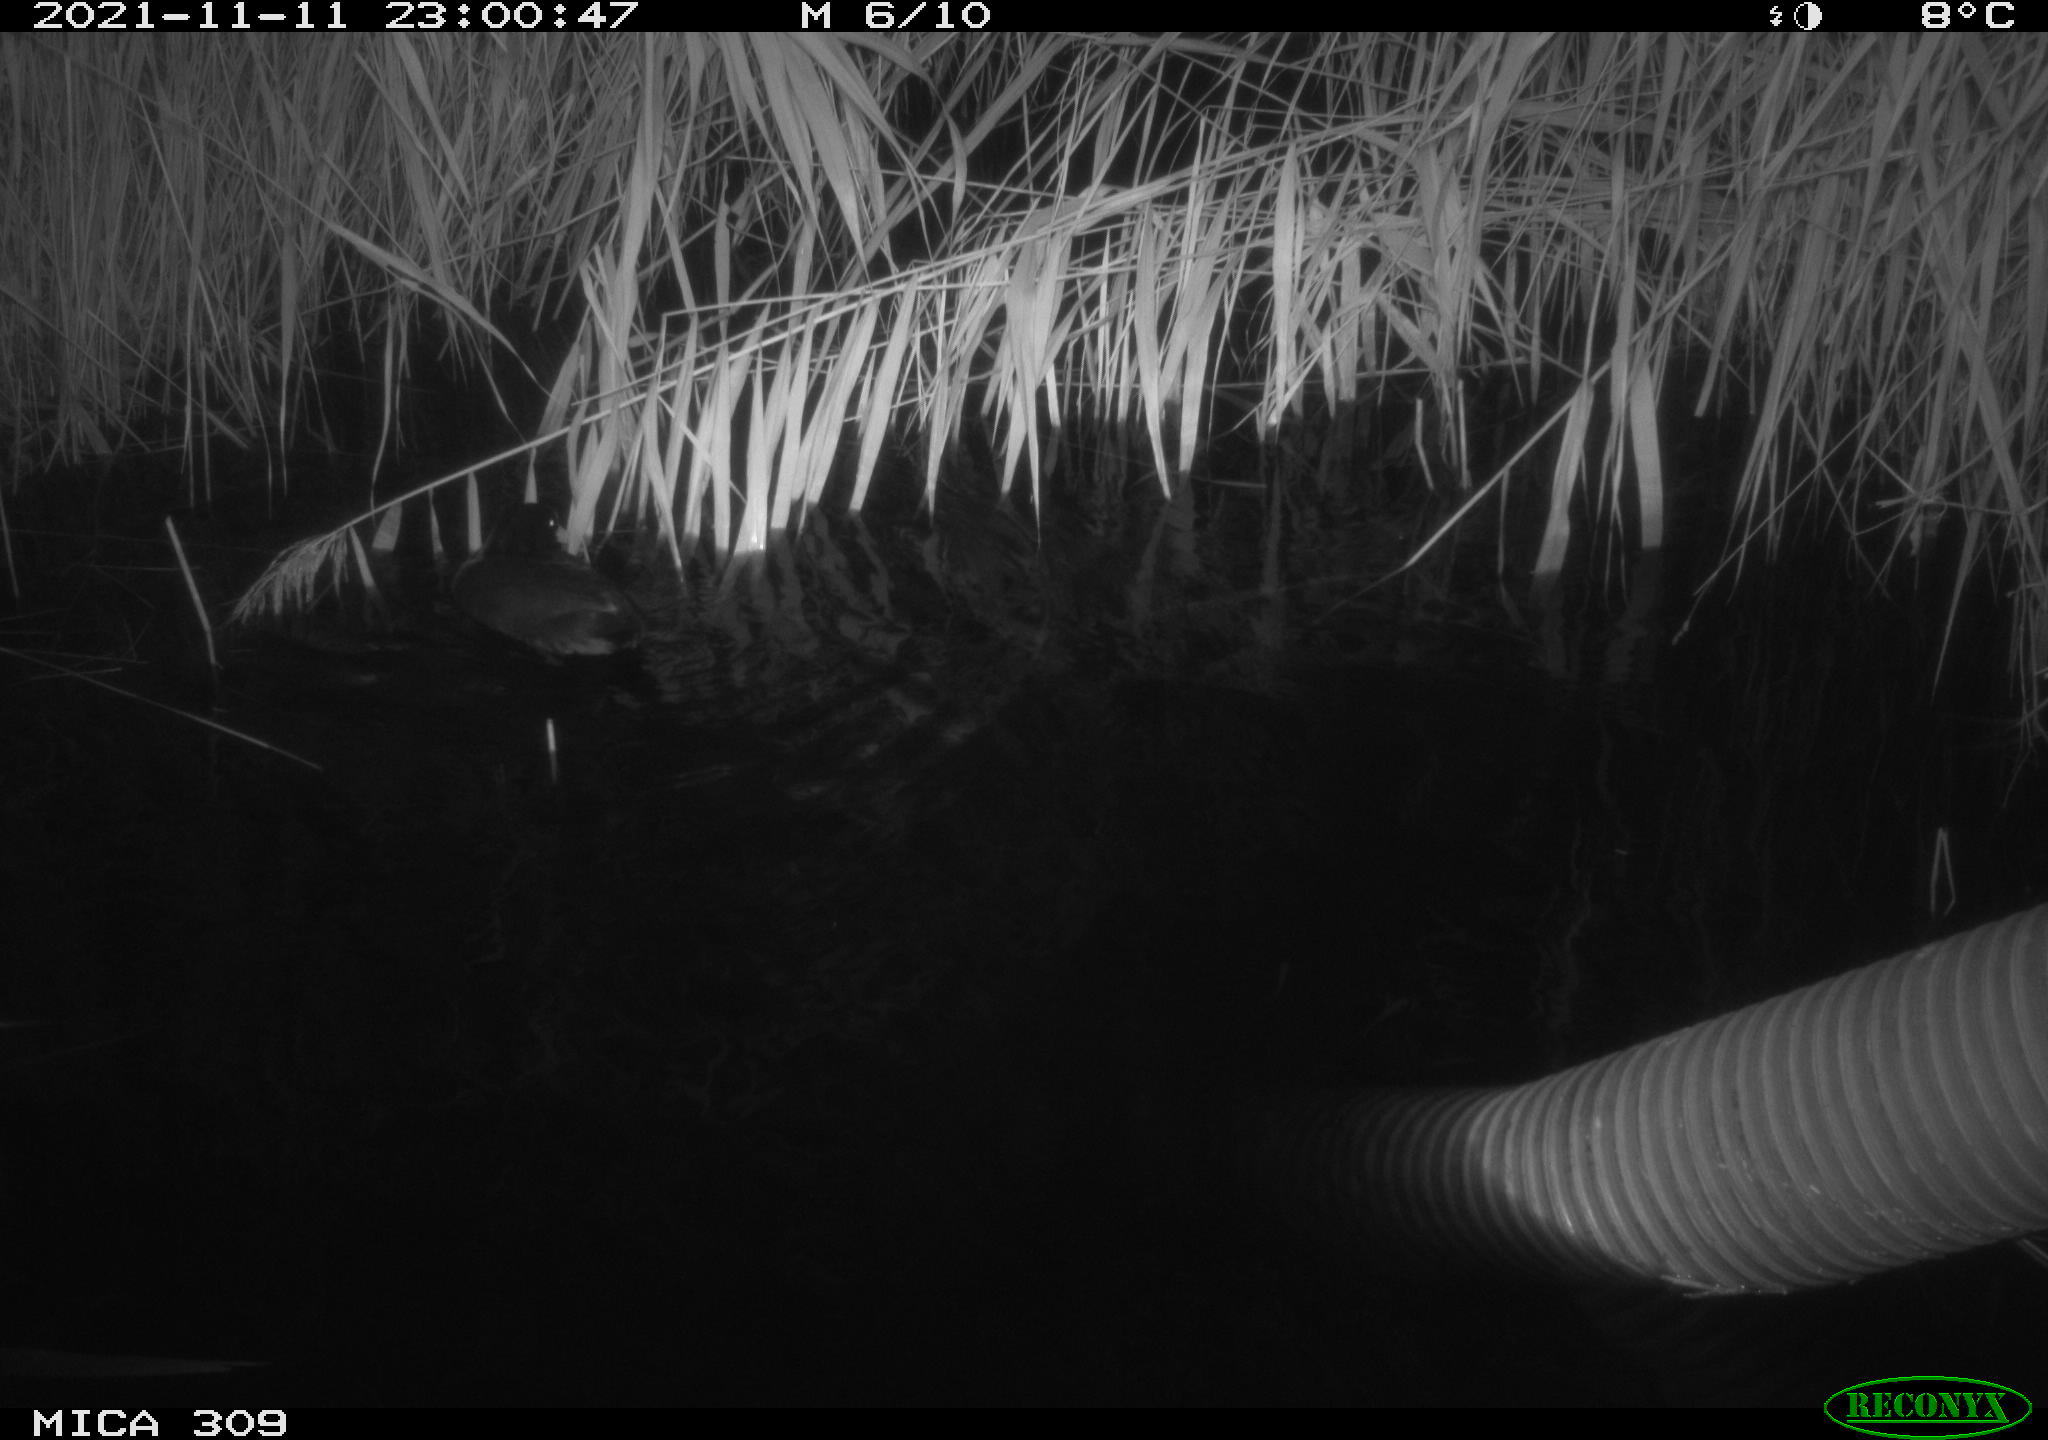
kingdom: Animalia
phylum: Chordata
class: Aves
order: Gruiformes
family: Rallidae
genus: Fulica
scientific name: Fulica atra
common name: Eurasian coot
